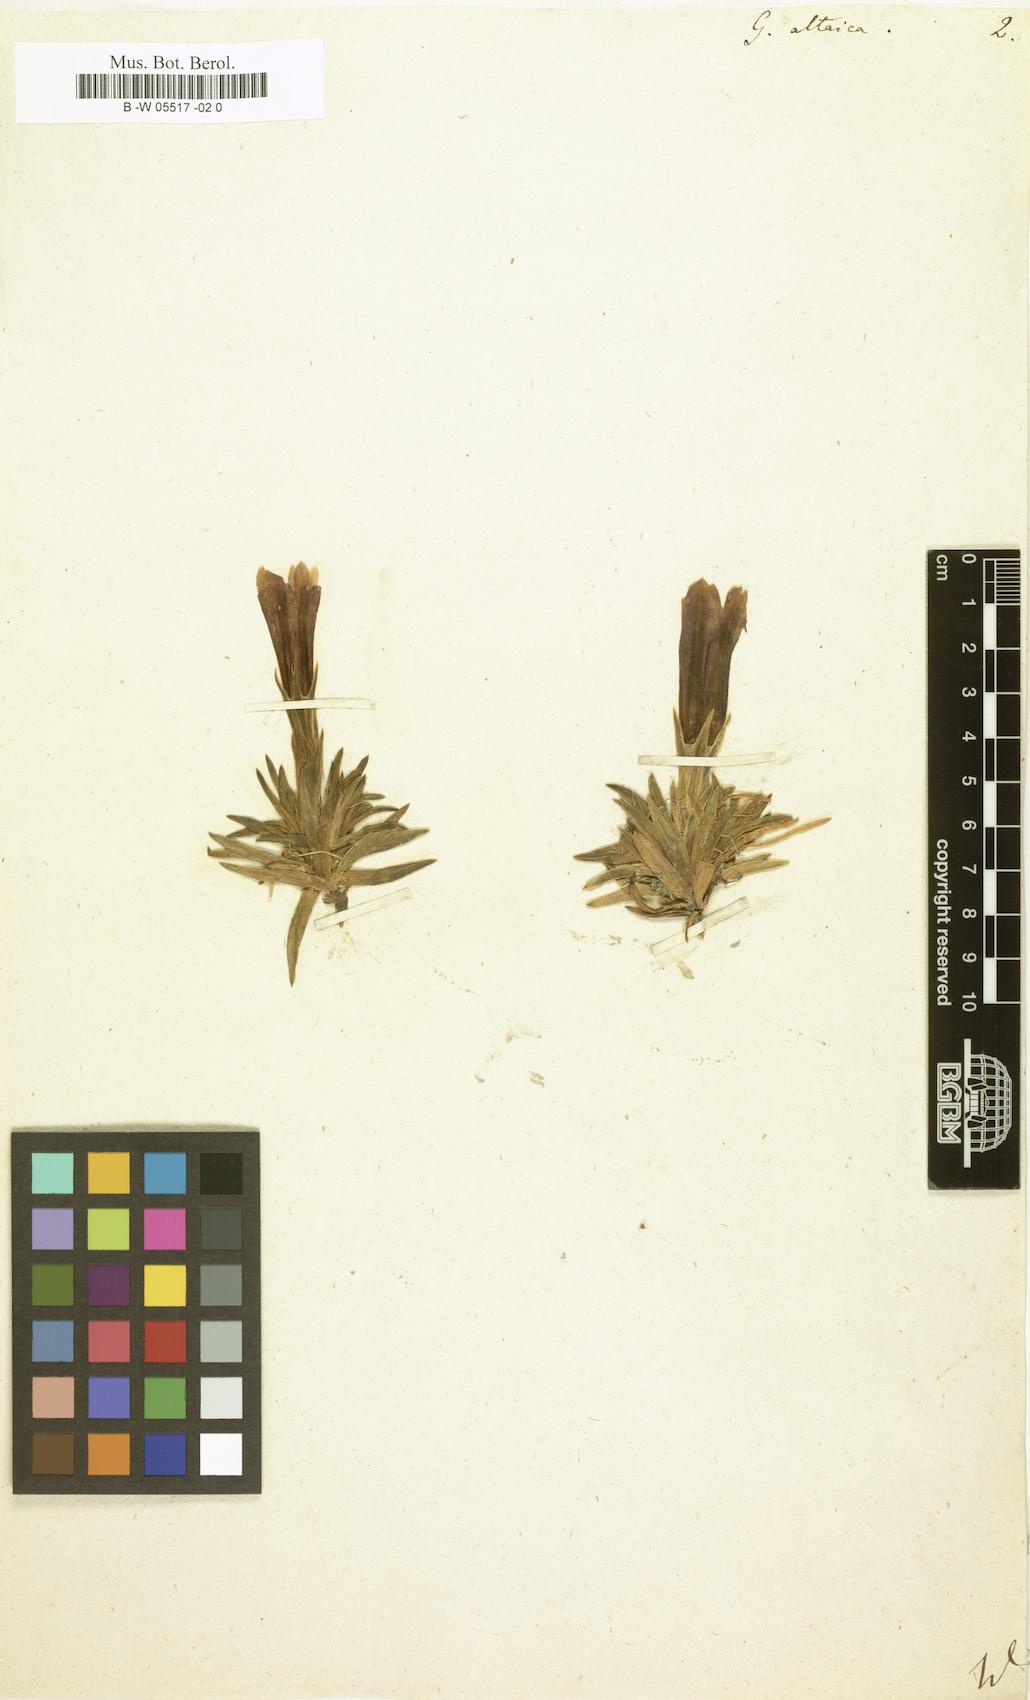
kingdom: Plantae
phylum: Tracheophyta
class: Magnoliopsida
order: Gentianales
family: Gentianaceae
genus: Gentiana
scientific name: Gentiana grandiflora
